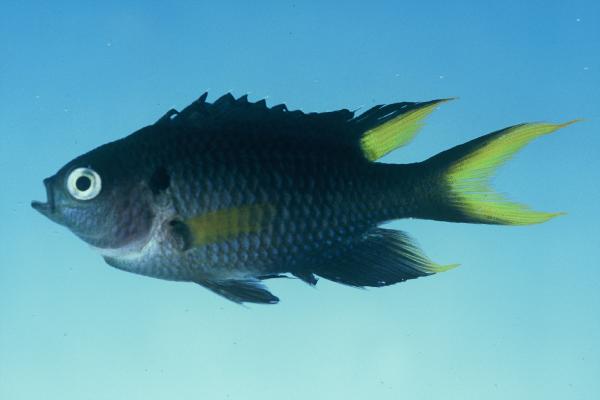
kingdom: Animalia
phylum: Chordata
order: Perciformes
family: Pomacentridae
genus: Neopomacentrus
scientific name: Neopomacentrus cyanomos
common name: Regal demoiselle
